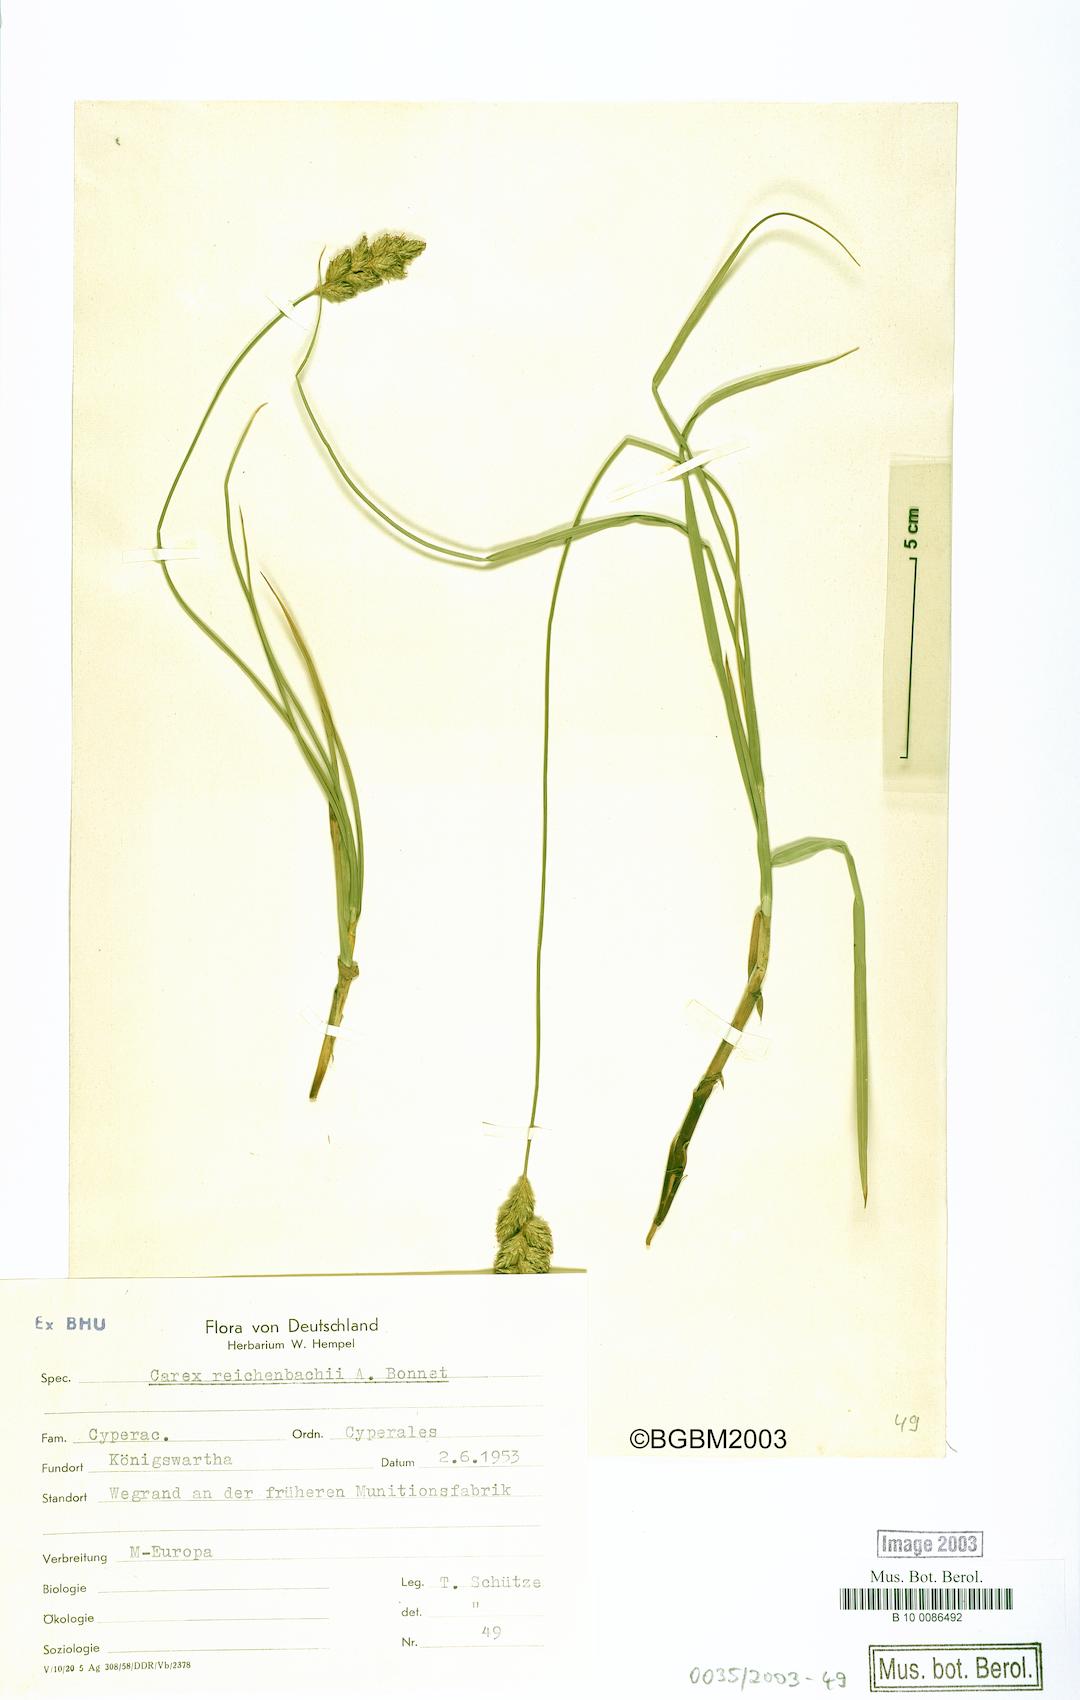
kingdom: Plantae
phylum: Tracheophyta
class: Liliopsida
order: Poales
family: Cyperaceae
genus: Carex
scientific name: Carex reichenbachii
